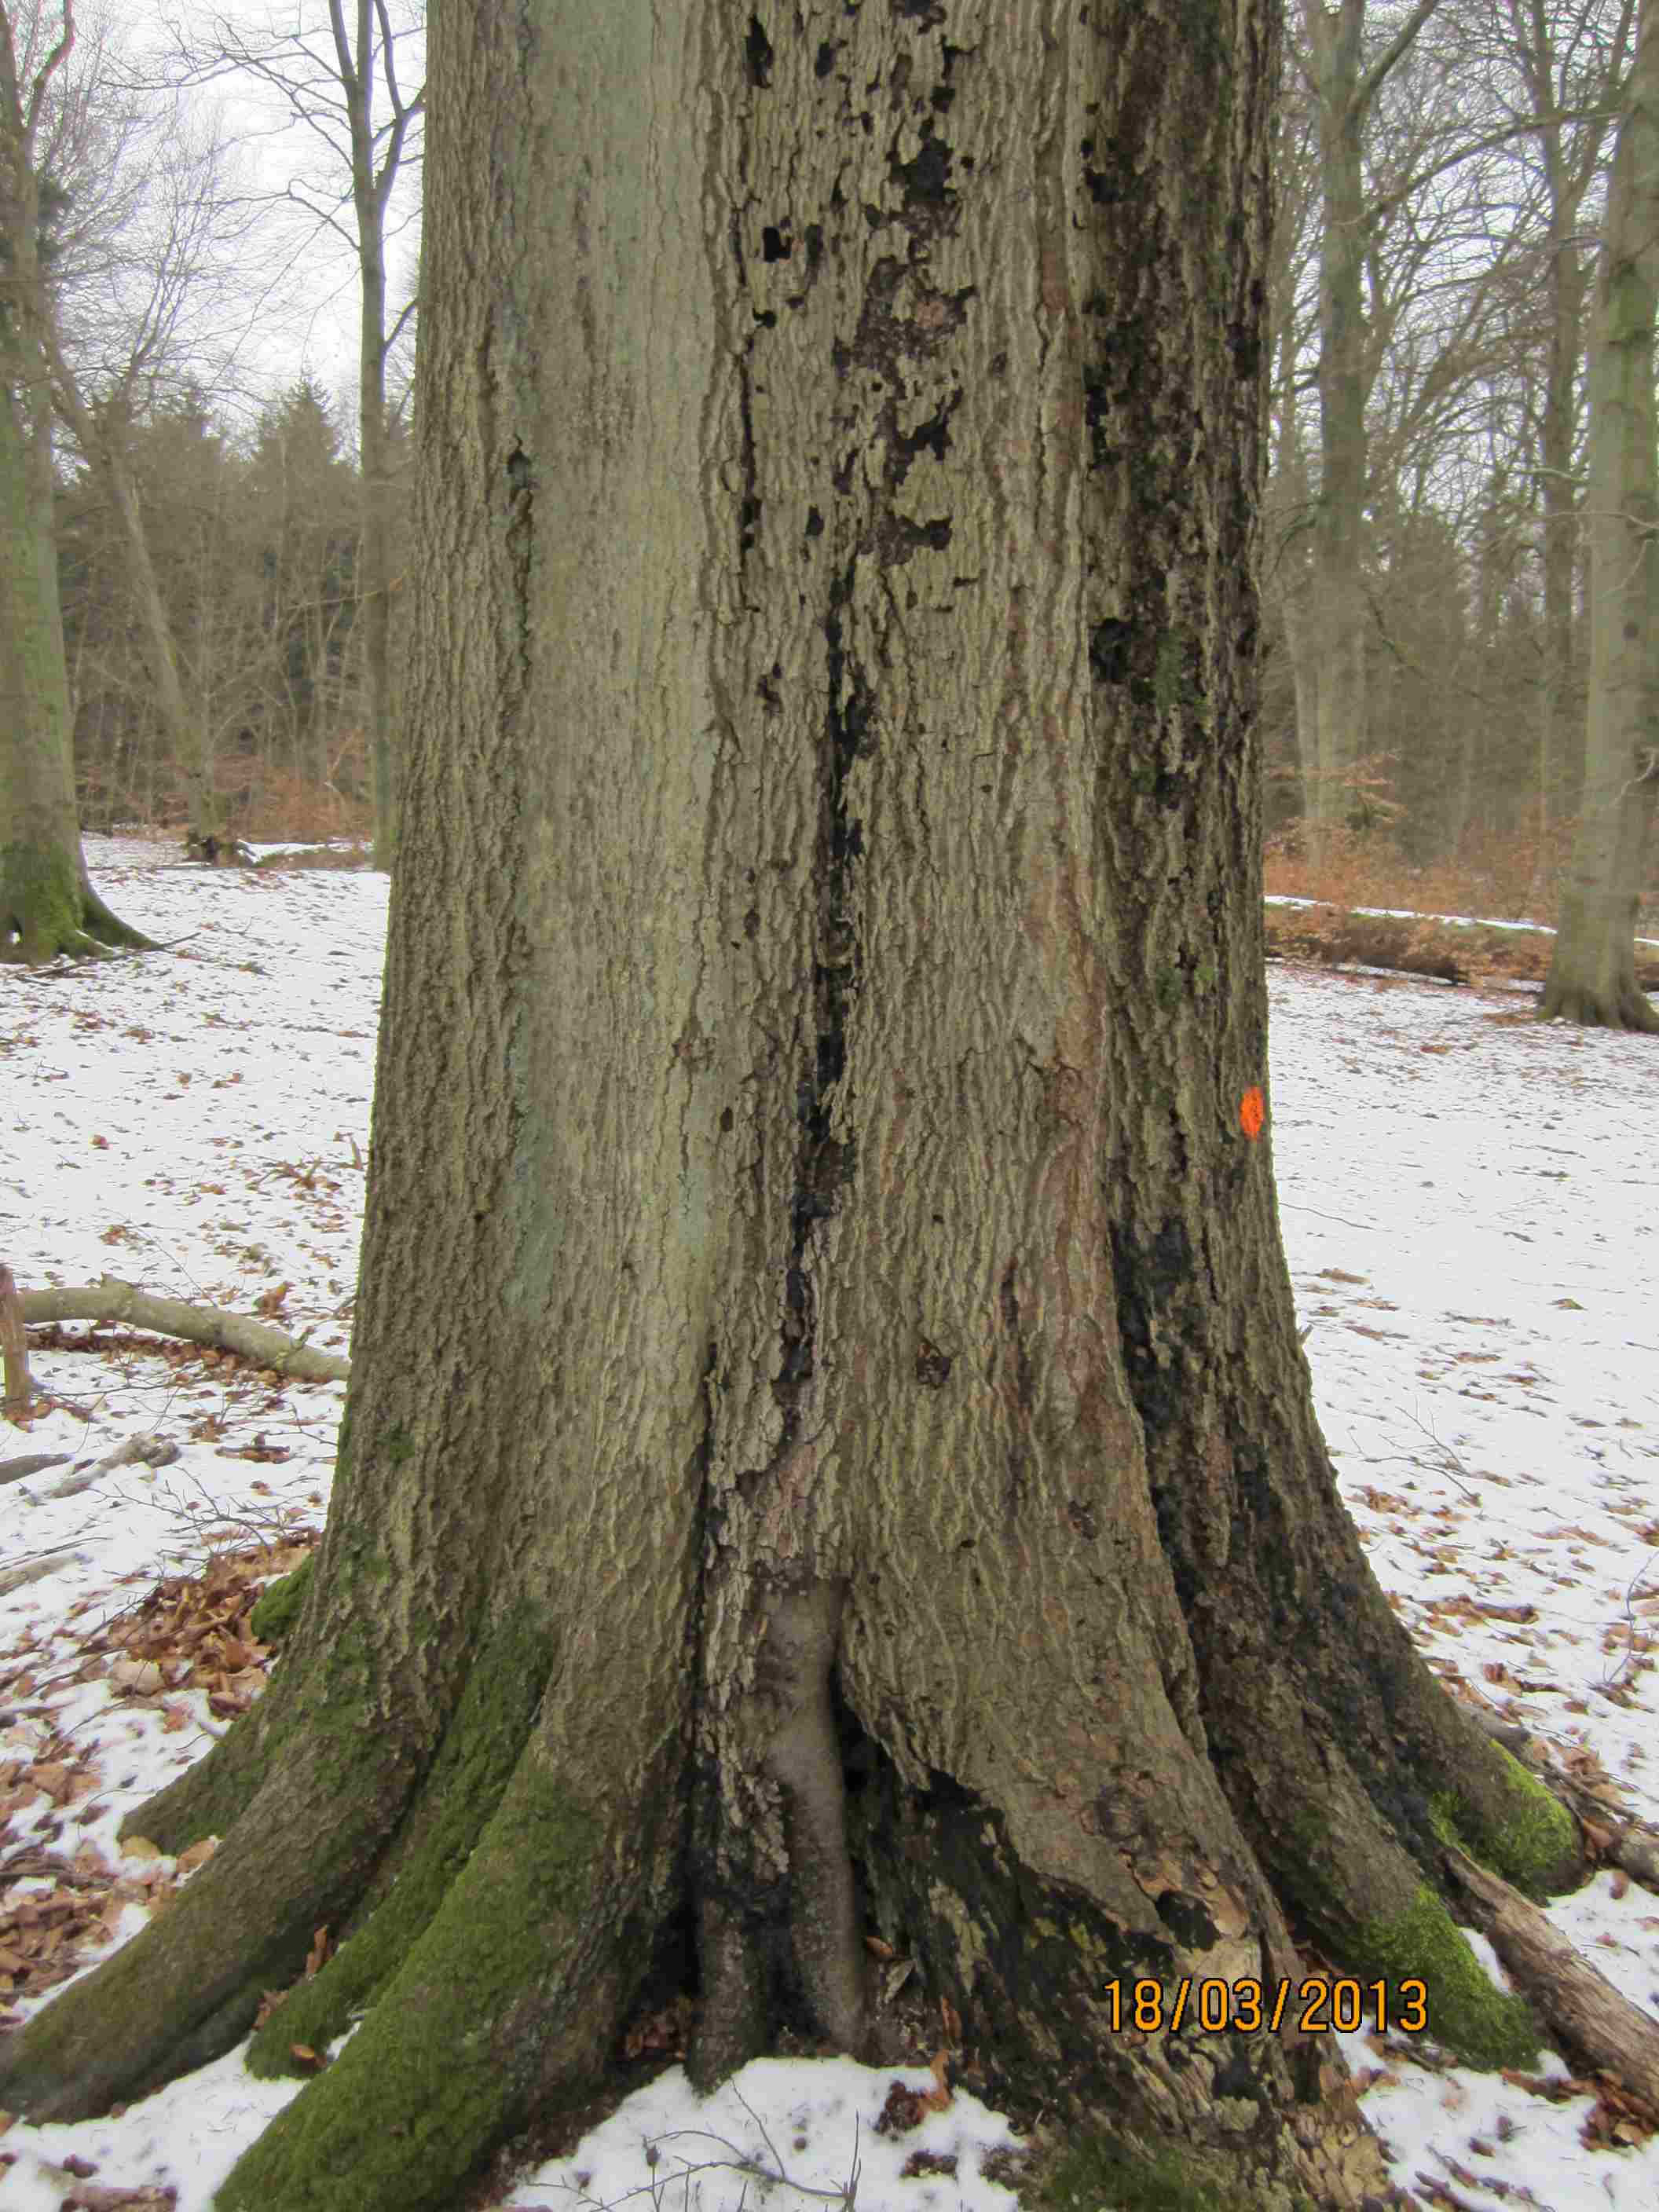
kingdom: Fungi
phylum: Ascomycota
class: Sordariomycetes
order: Xylariales
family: Xylariaceae
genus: Kretzschmaria
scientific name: Kretzschmaria deusta
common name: stor kulsvamp
